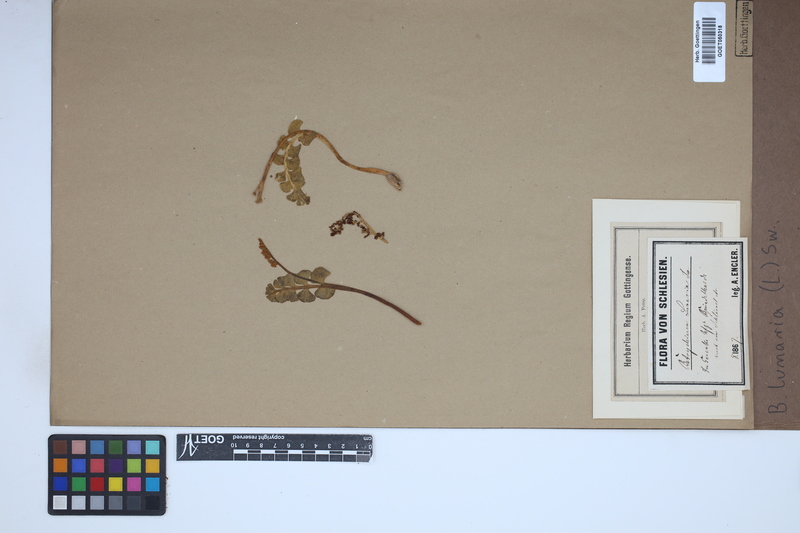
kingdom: Plantae
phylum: Tracheophyta
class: Polypodiopsida
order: Ophioglossales
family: Ophioglossaceae
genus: Botrychium
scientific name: Botrychium lunaria
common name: Moonwort
